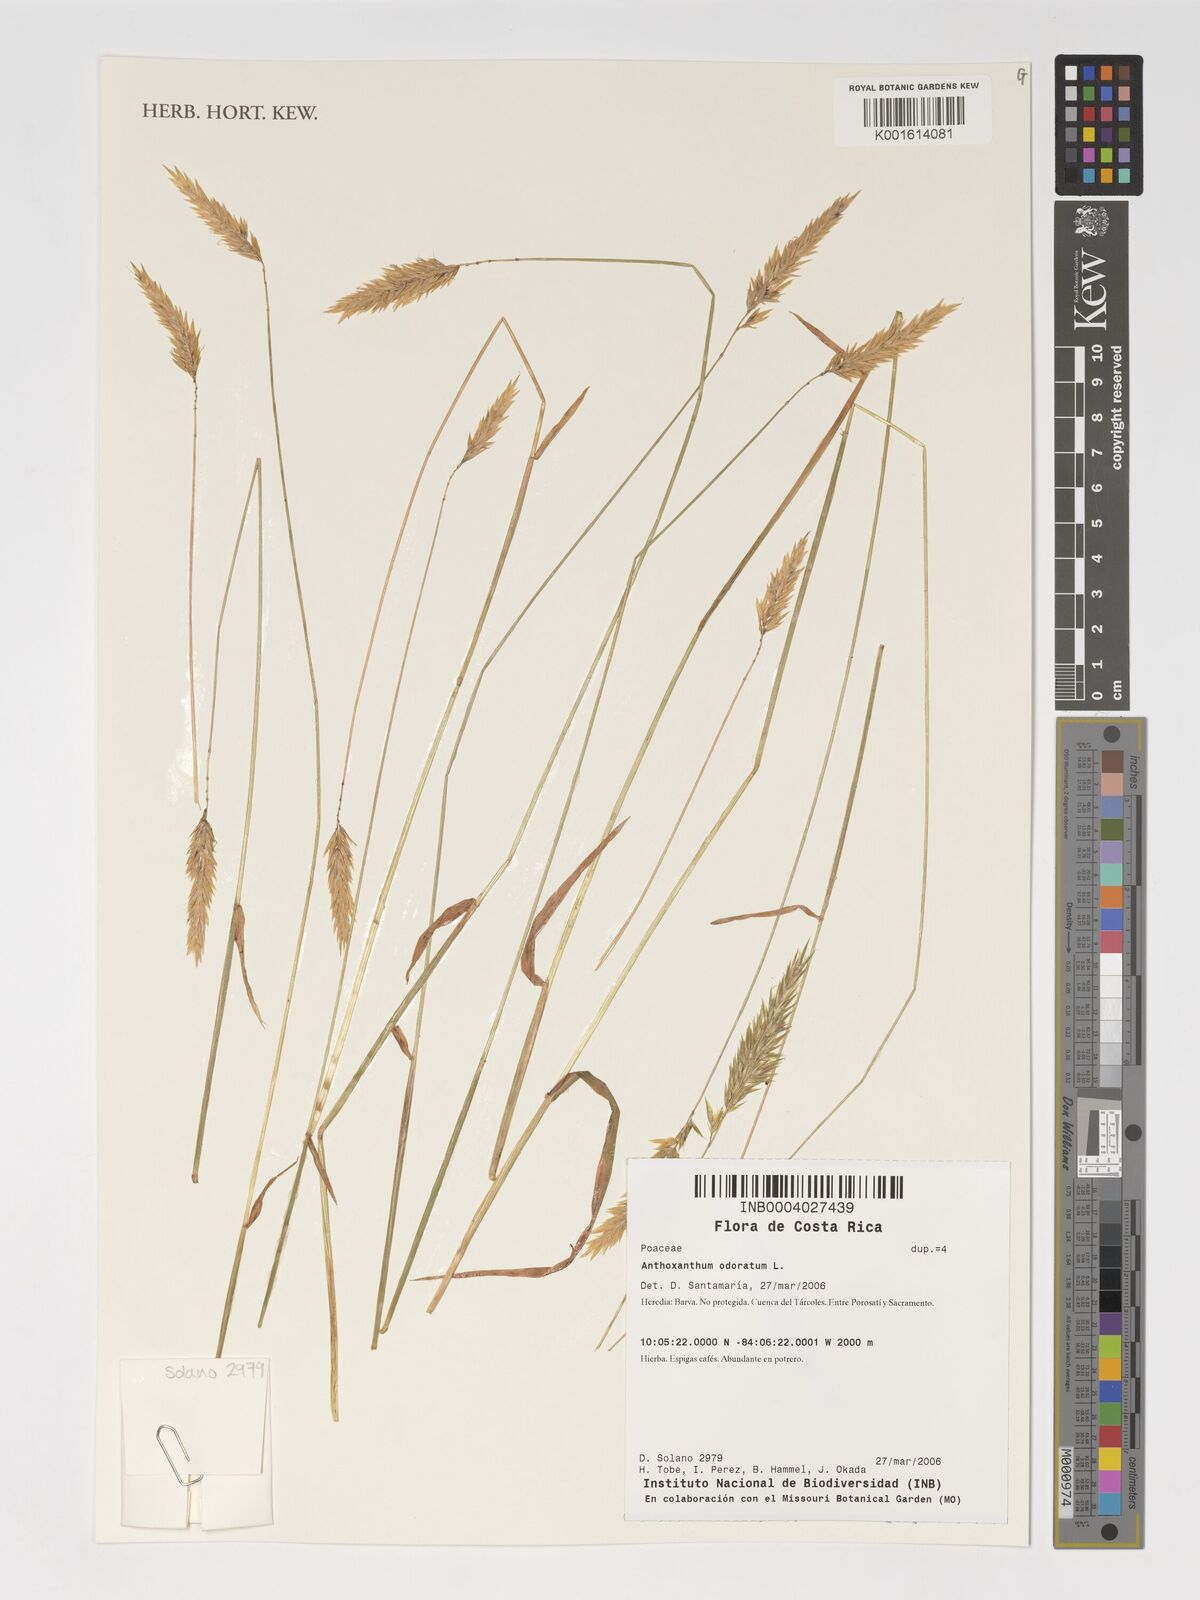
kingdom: Plantae
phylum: Tracheophyta
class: Liliopsida
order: Poales
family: Poaceae
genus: Anthoxanthum
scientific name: Anthoxanthum odoratum
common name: Sweet vernalgrass
